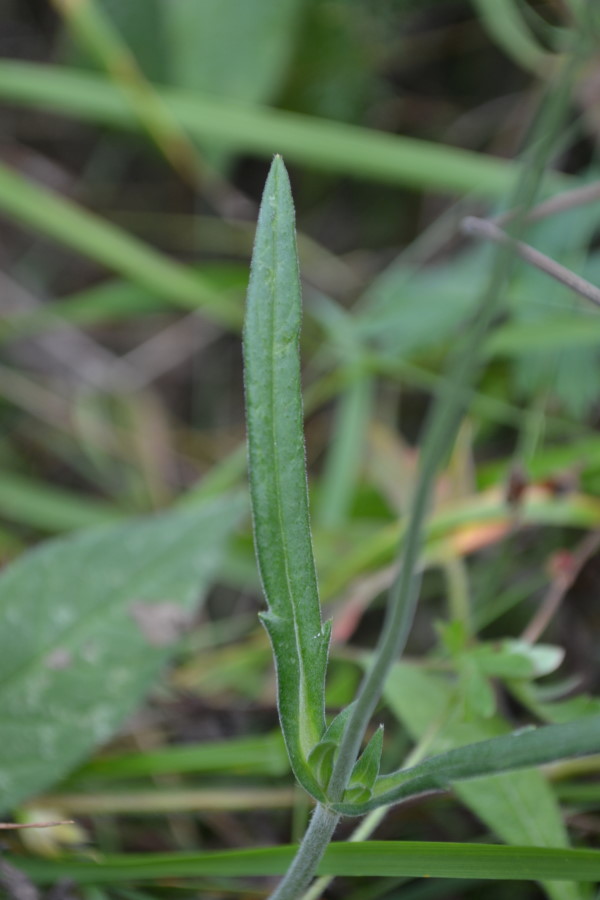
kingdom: Plantae
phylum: Tracheophyta
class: Magnoliopsida
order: Dipsacales
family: Caprifoliaceae
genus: Knautia
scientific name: Knautia arvensis
